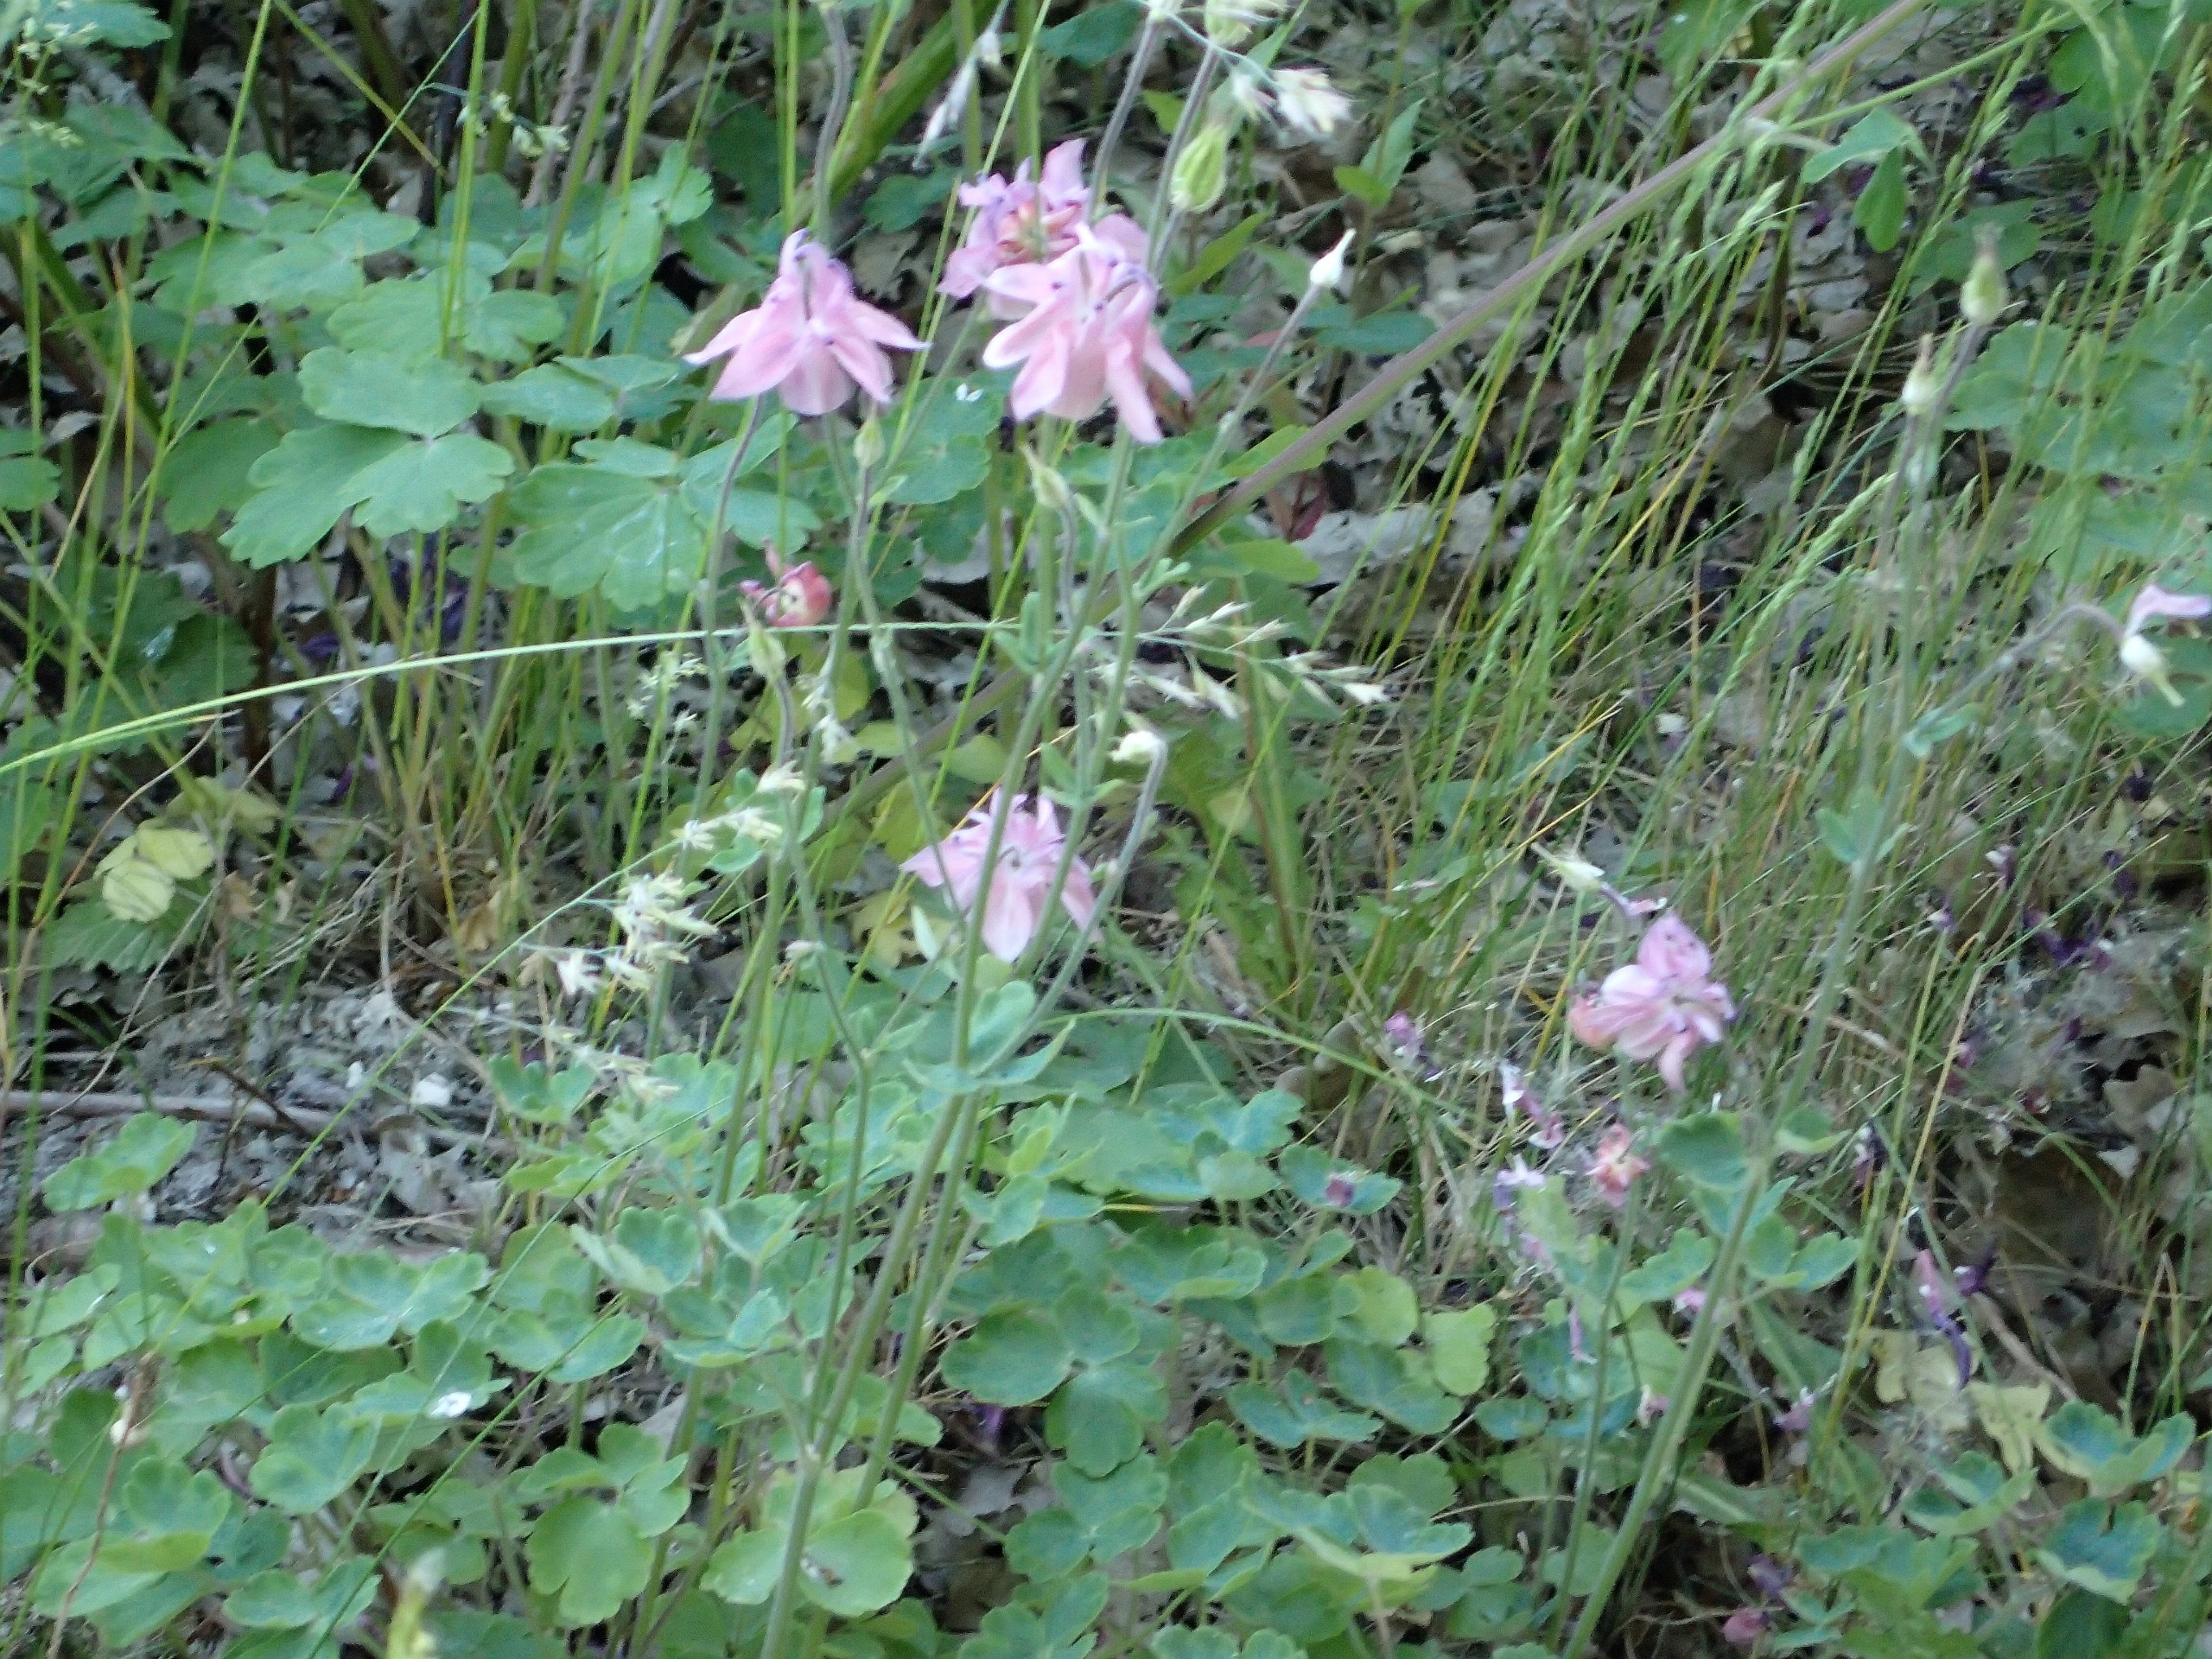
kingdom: Plantae
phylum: Tracheophyta
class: Magnoliopsida
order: Ranunculales
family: Ranunculaceae
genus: Aquilegia
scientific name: Aquilegia vulgaris
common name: Akeleje
